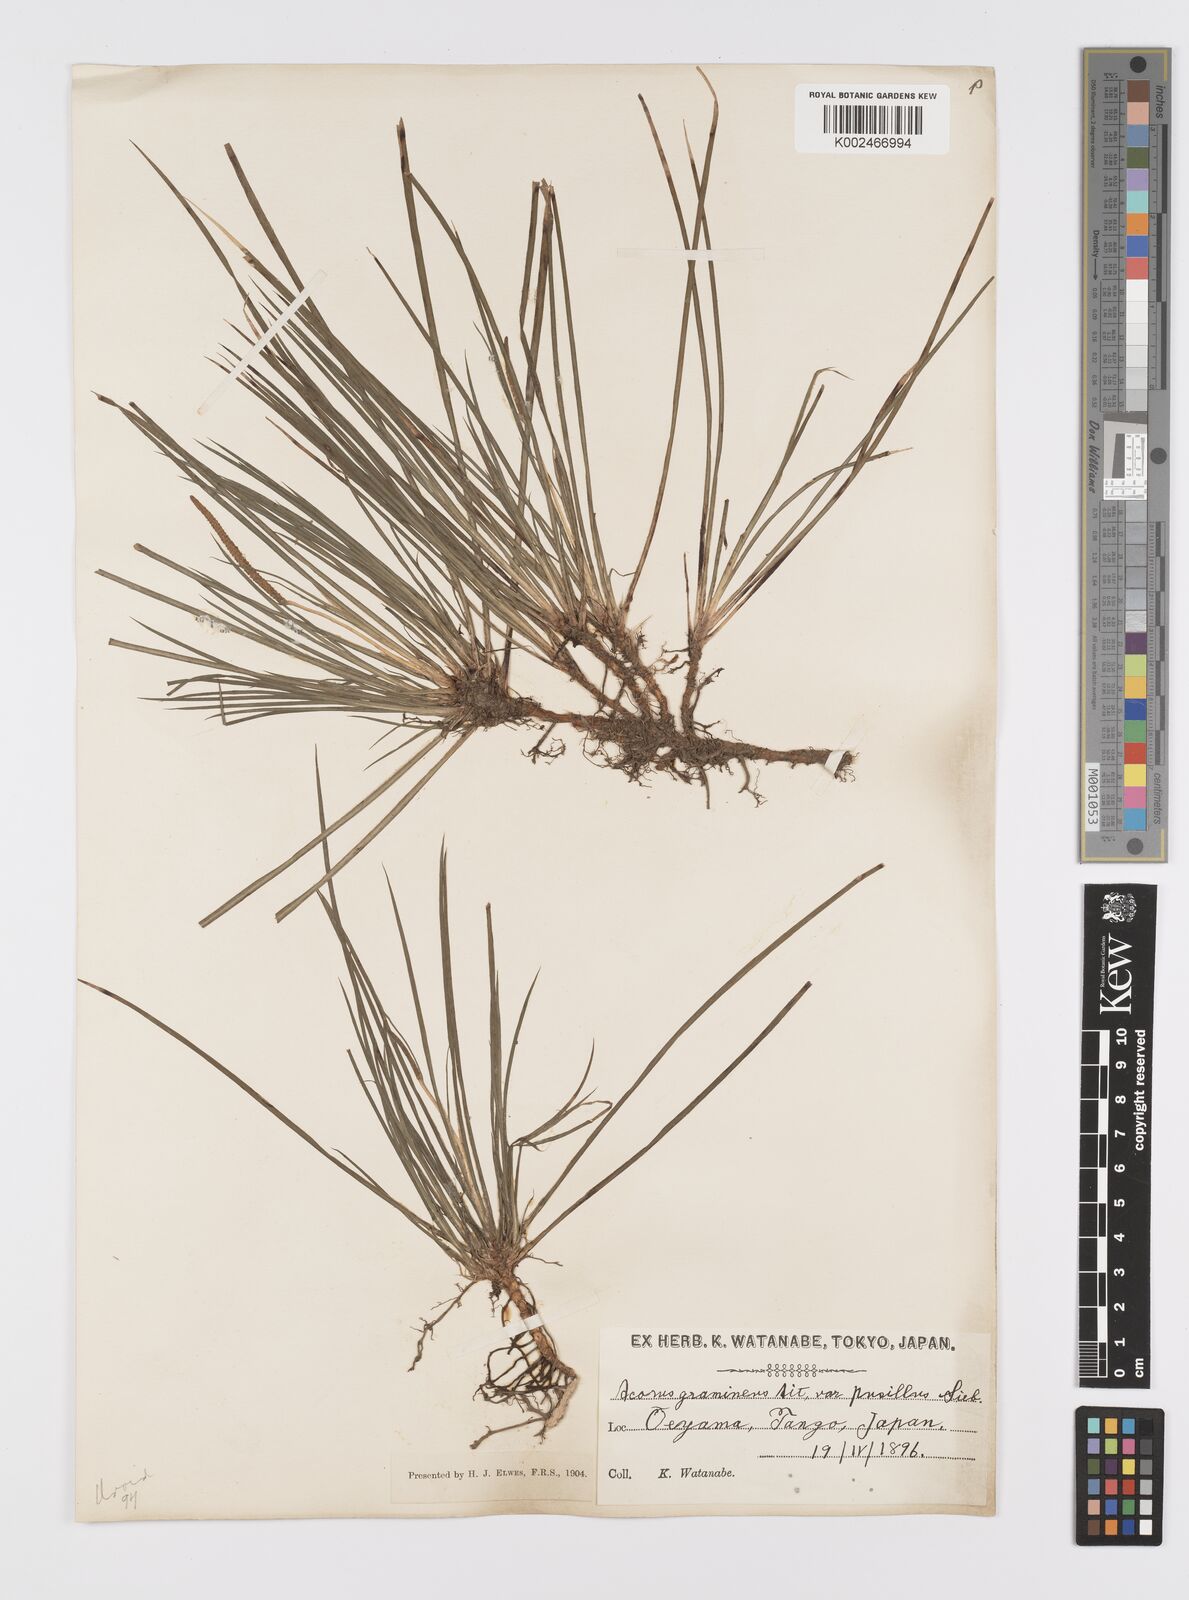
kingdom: Plantae
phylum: Tracheophyta
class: Liliopsida
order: Acorales
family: Acoraceae
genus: Acorus
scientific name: Acorus gramineus
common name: Slender sweet-flag
